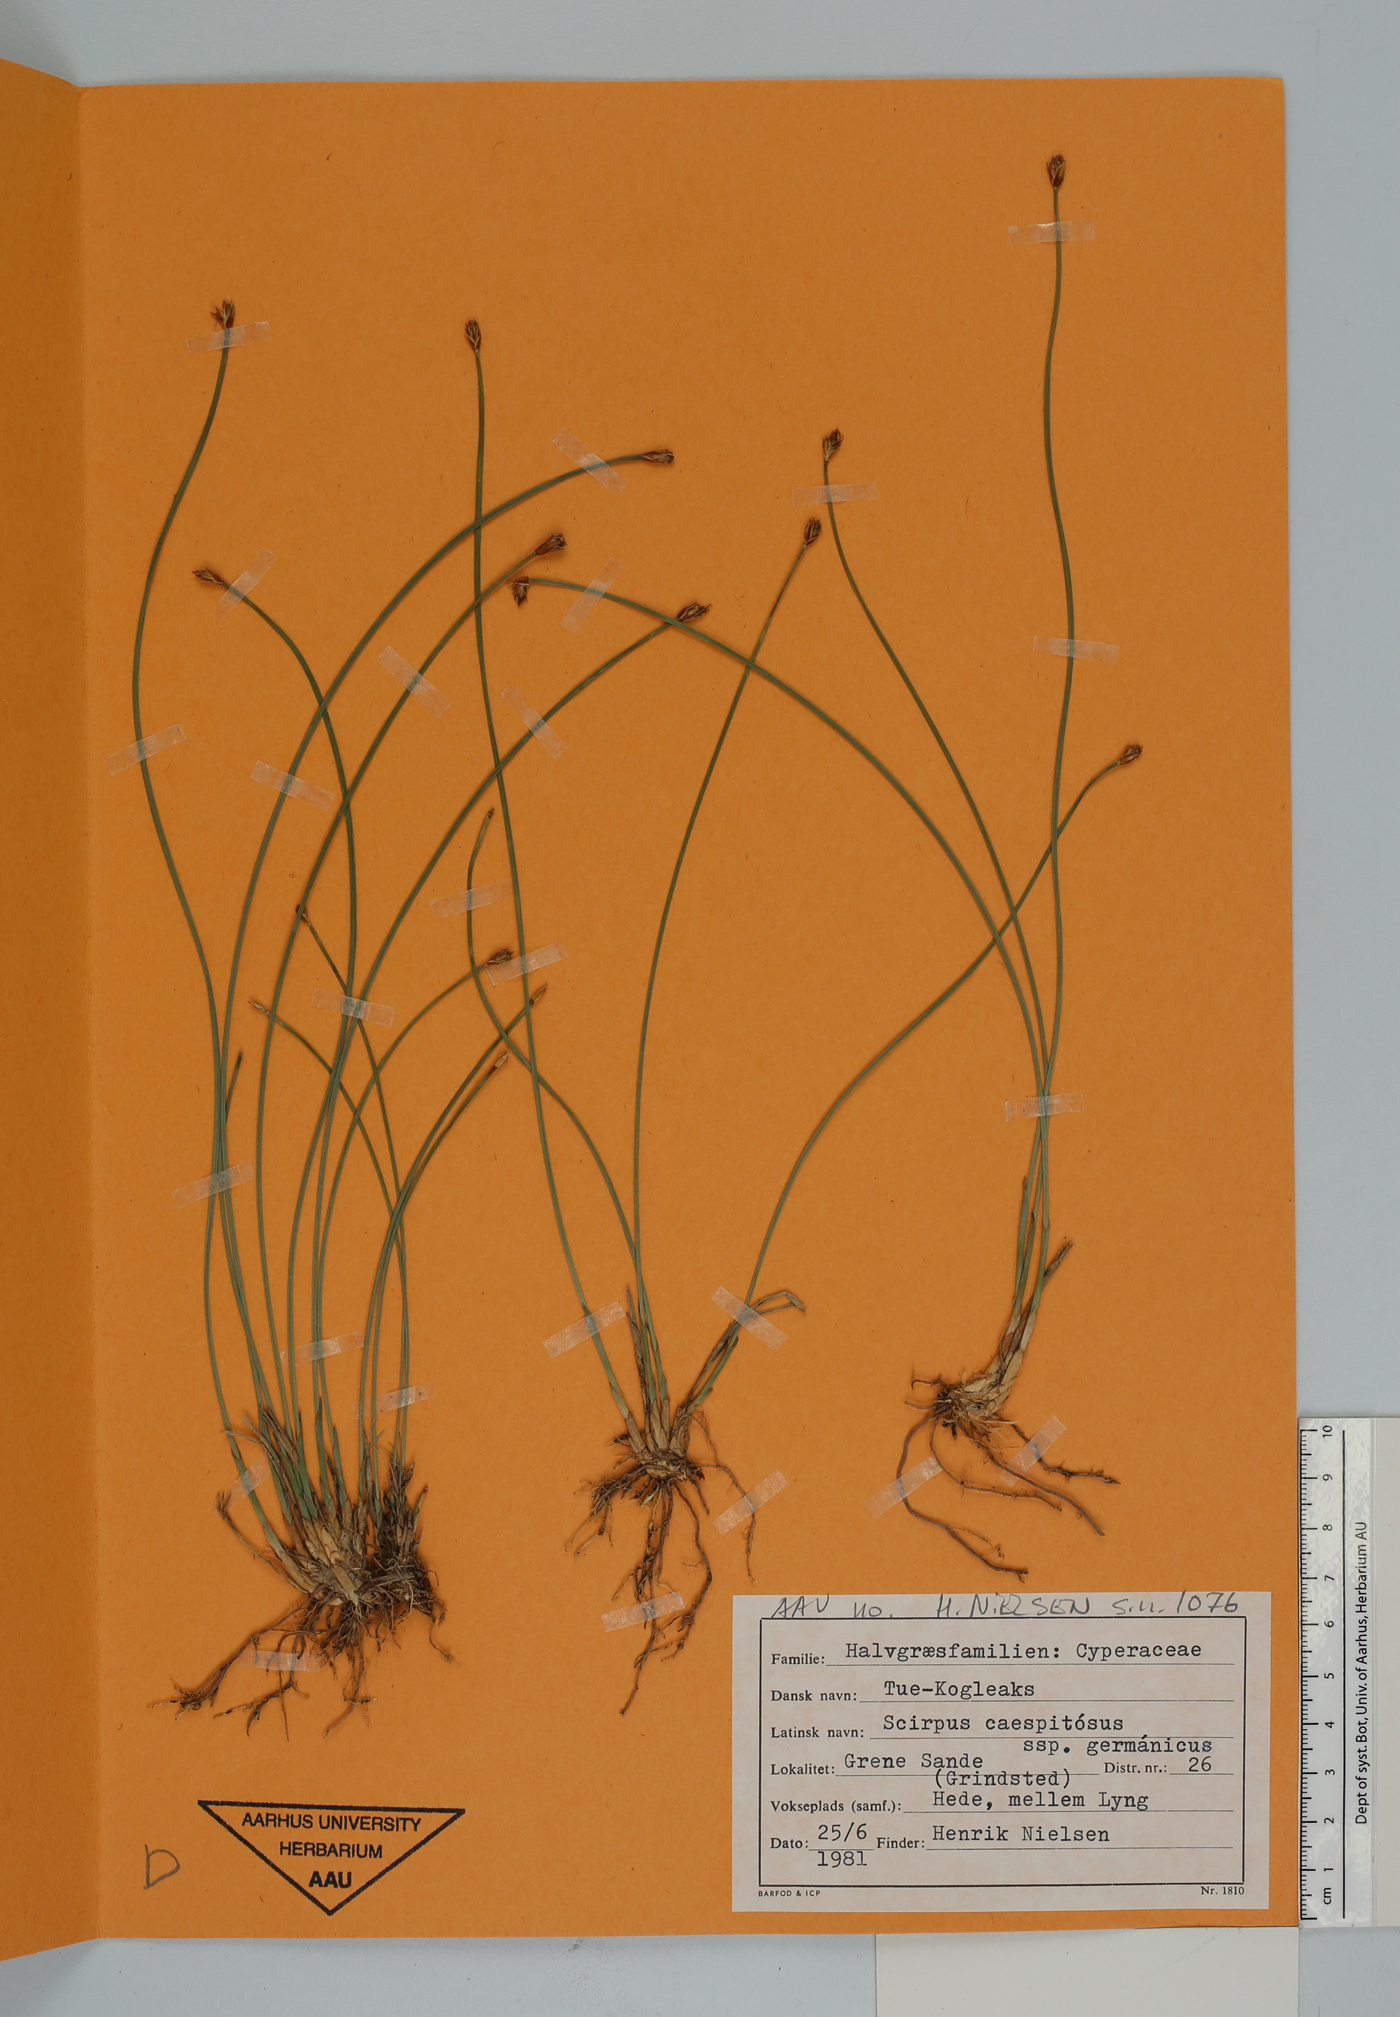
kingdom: Plantae
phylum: Tracheophyta
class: Liliopsida
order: Poales
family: Cyperaceae
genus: Trichophorum
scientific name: Trichophorum cespitosum
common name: Cespitose bulrush
